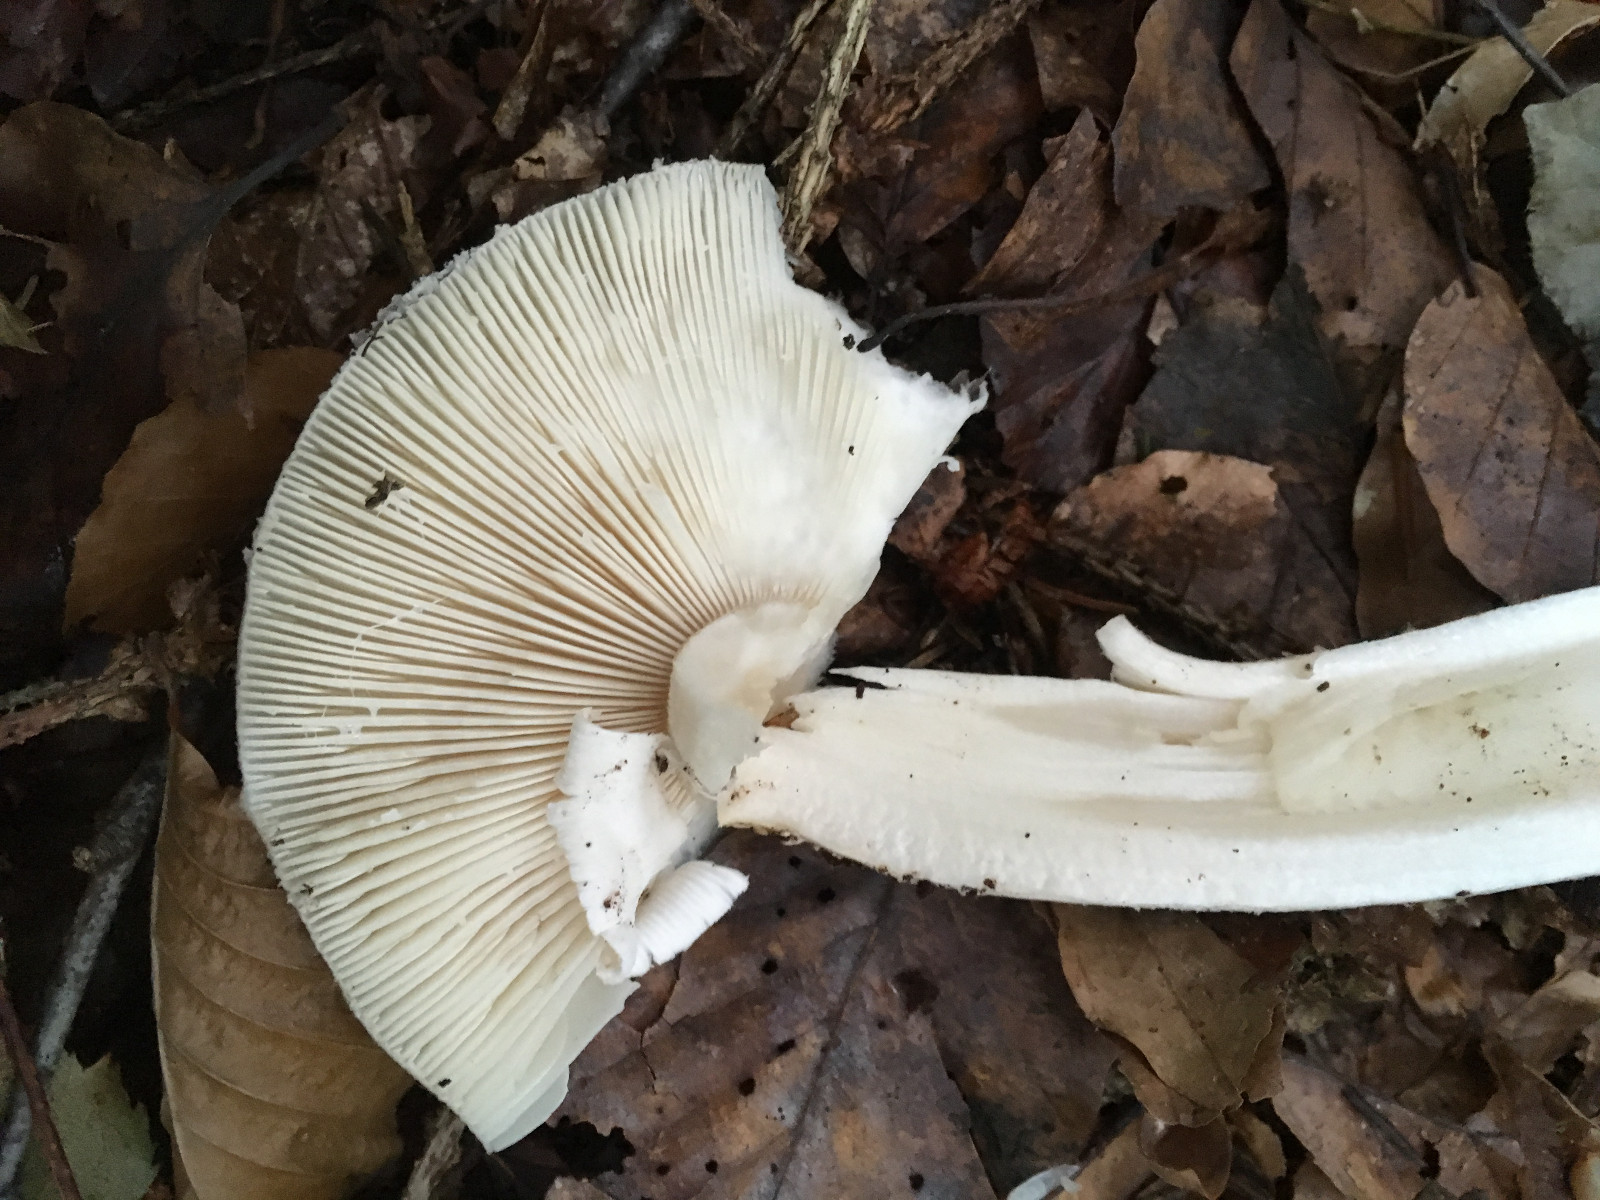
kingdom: Fungi
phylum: Basidiomycota
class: Agaricomycetes
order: Agaricales
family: Amanitaceae
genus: Amanita
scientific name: Amanita
